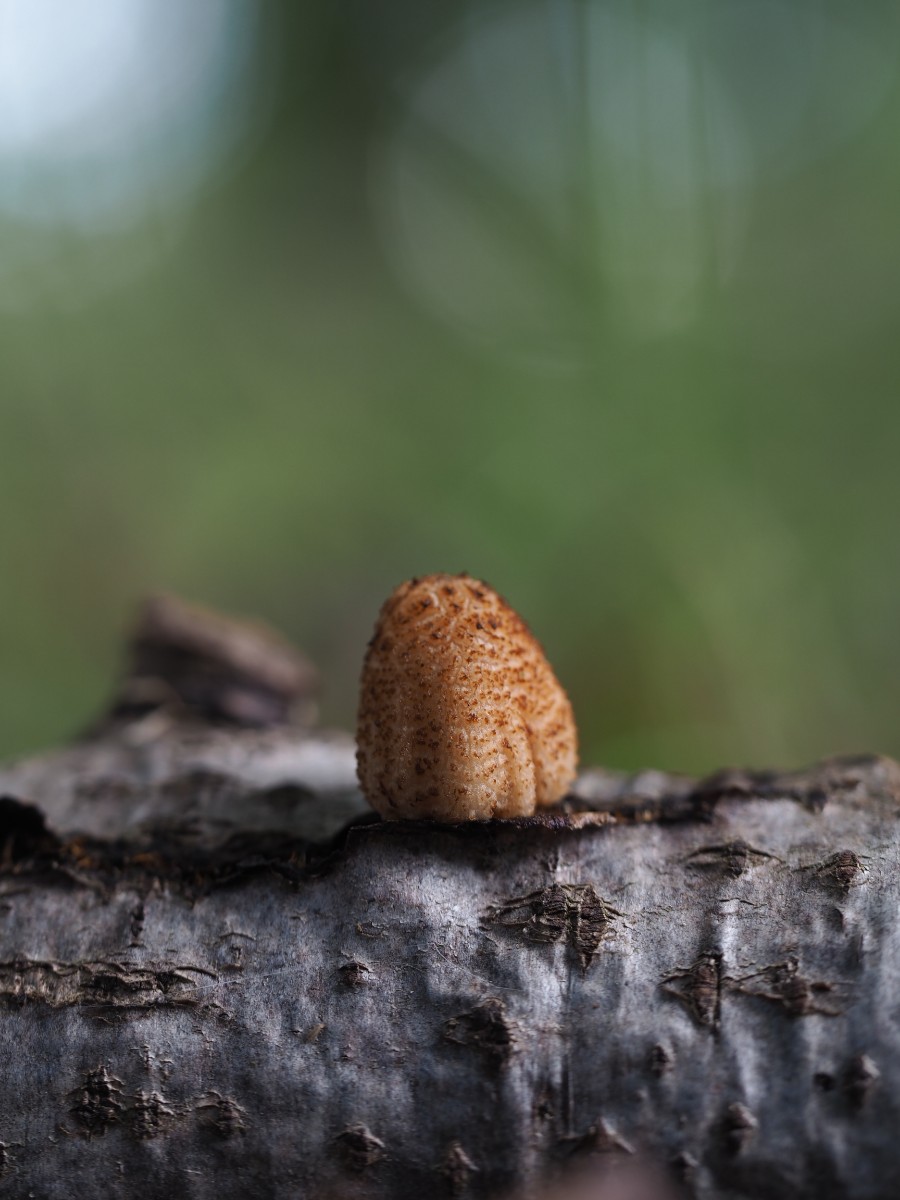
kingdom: Fungi
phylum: Basidiomycota
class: Agaricomycetes
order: Agaricales
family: Psathyrellaceae
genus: Coprinellus
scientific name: Coprinellus domesticus
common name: hus-blækhat
